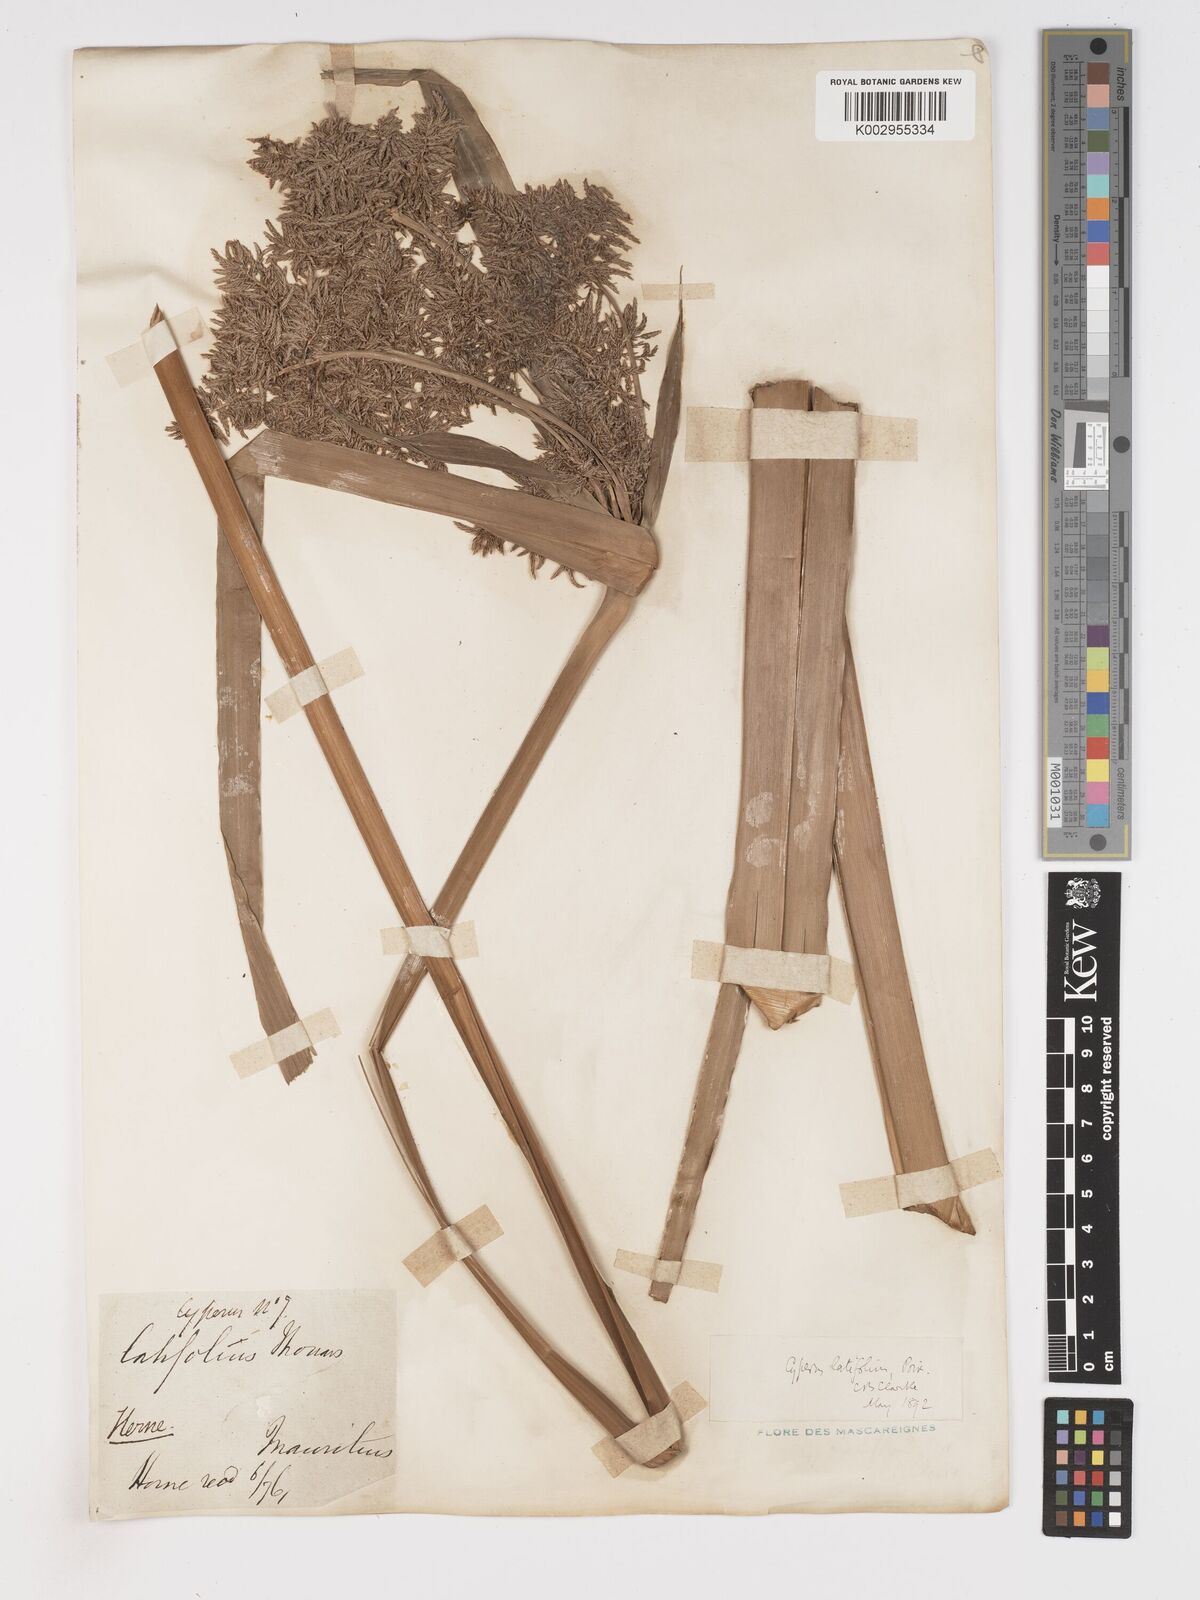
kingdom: Plantae
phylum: Tracheophyta
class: Liliopsida
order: Poales
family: Cyperaceae
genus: Cyperus
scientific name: Cyperus latifolius
